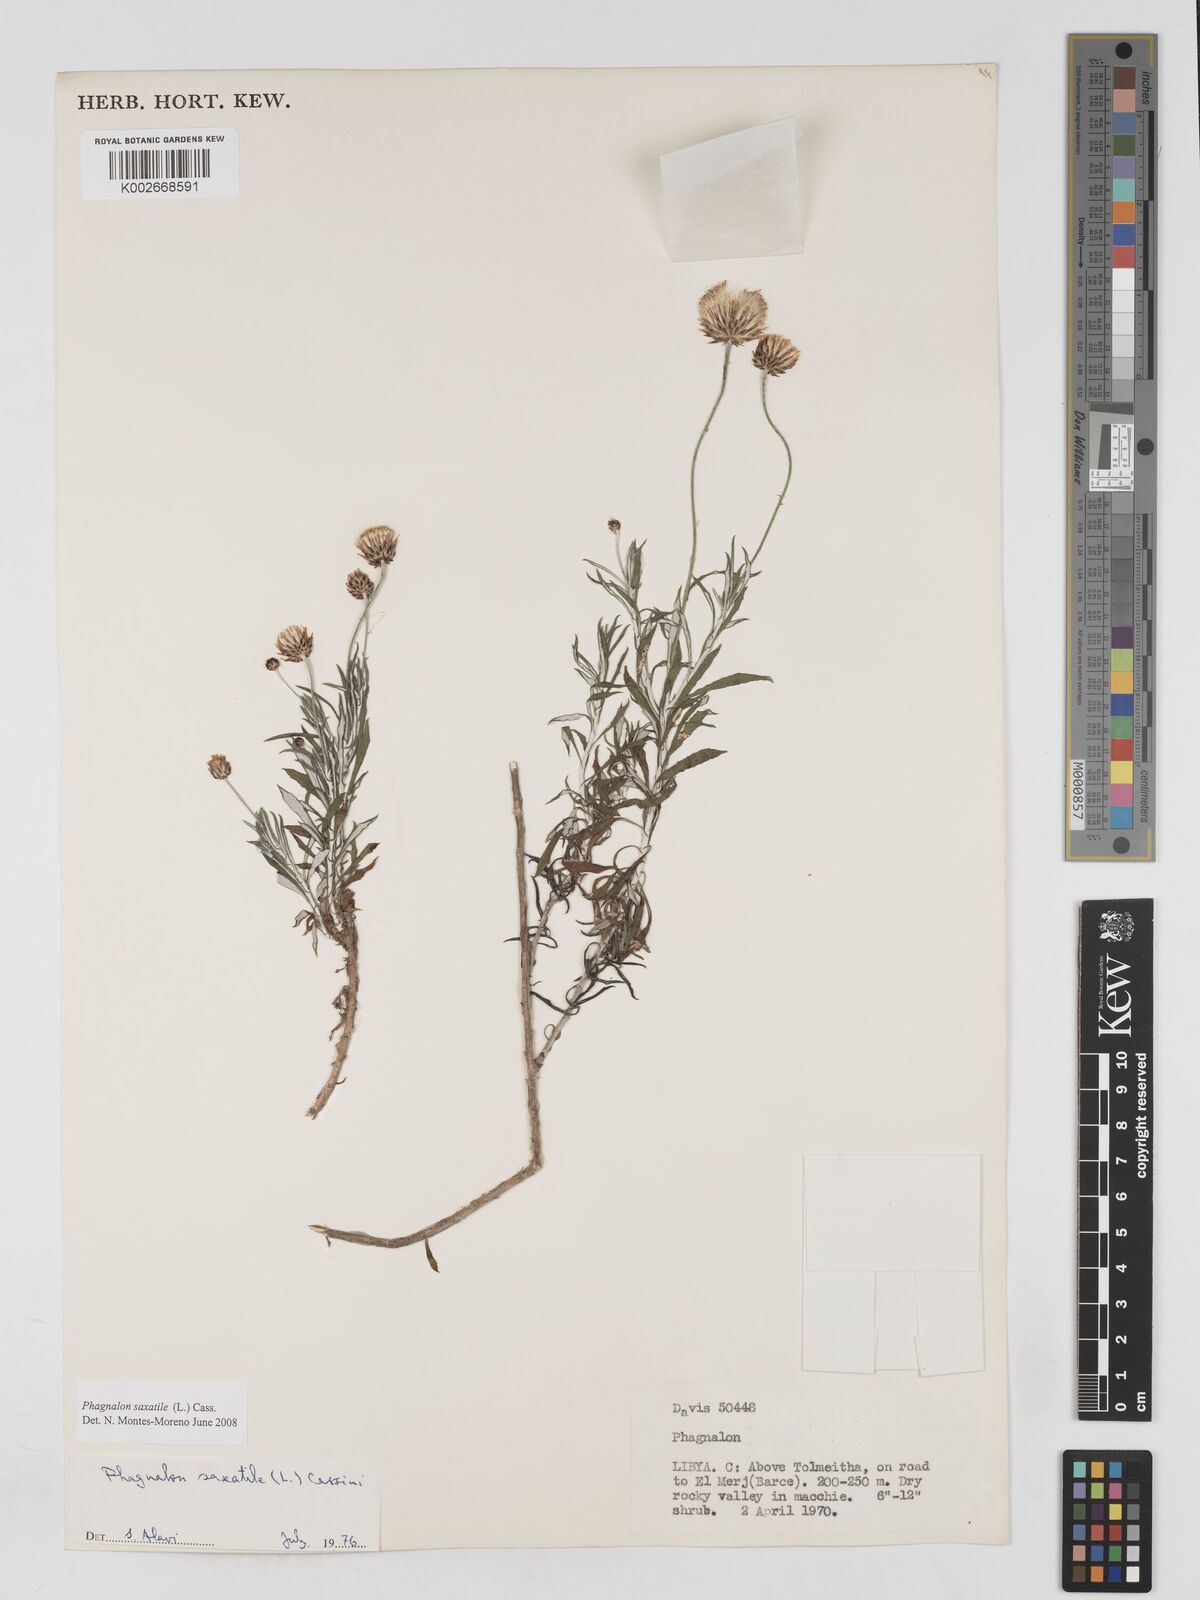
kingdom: Plantae
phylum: Tracheophyta
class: Magnoliopsida
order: Asterales
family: Asteraceae
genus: Phagnalon
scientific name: Phagnalon saxatile
